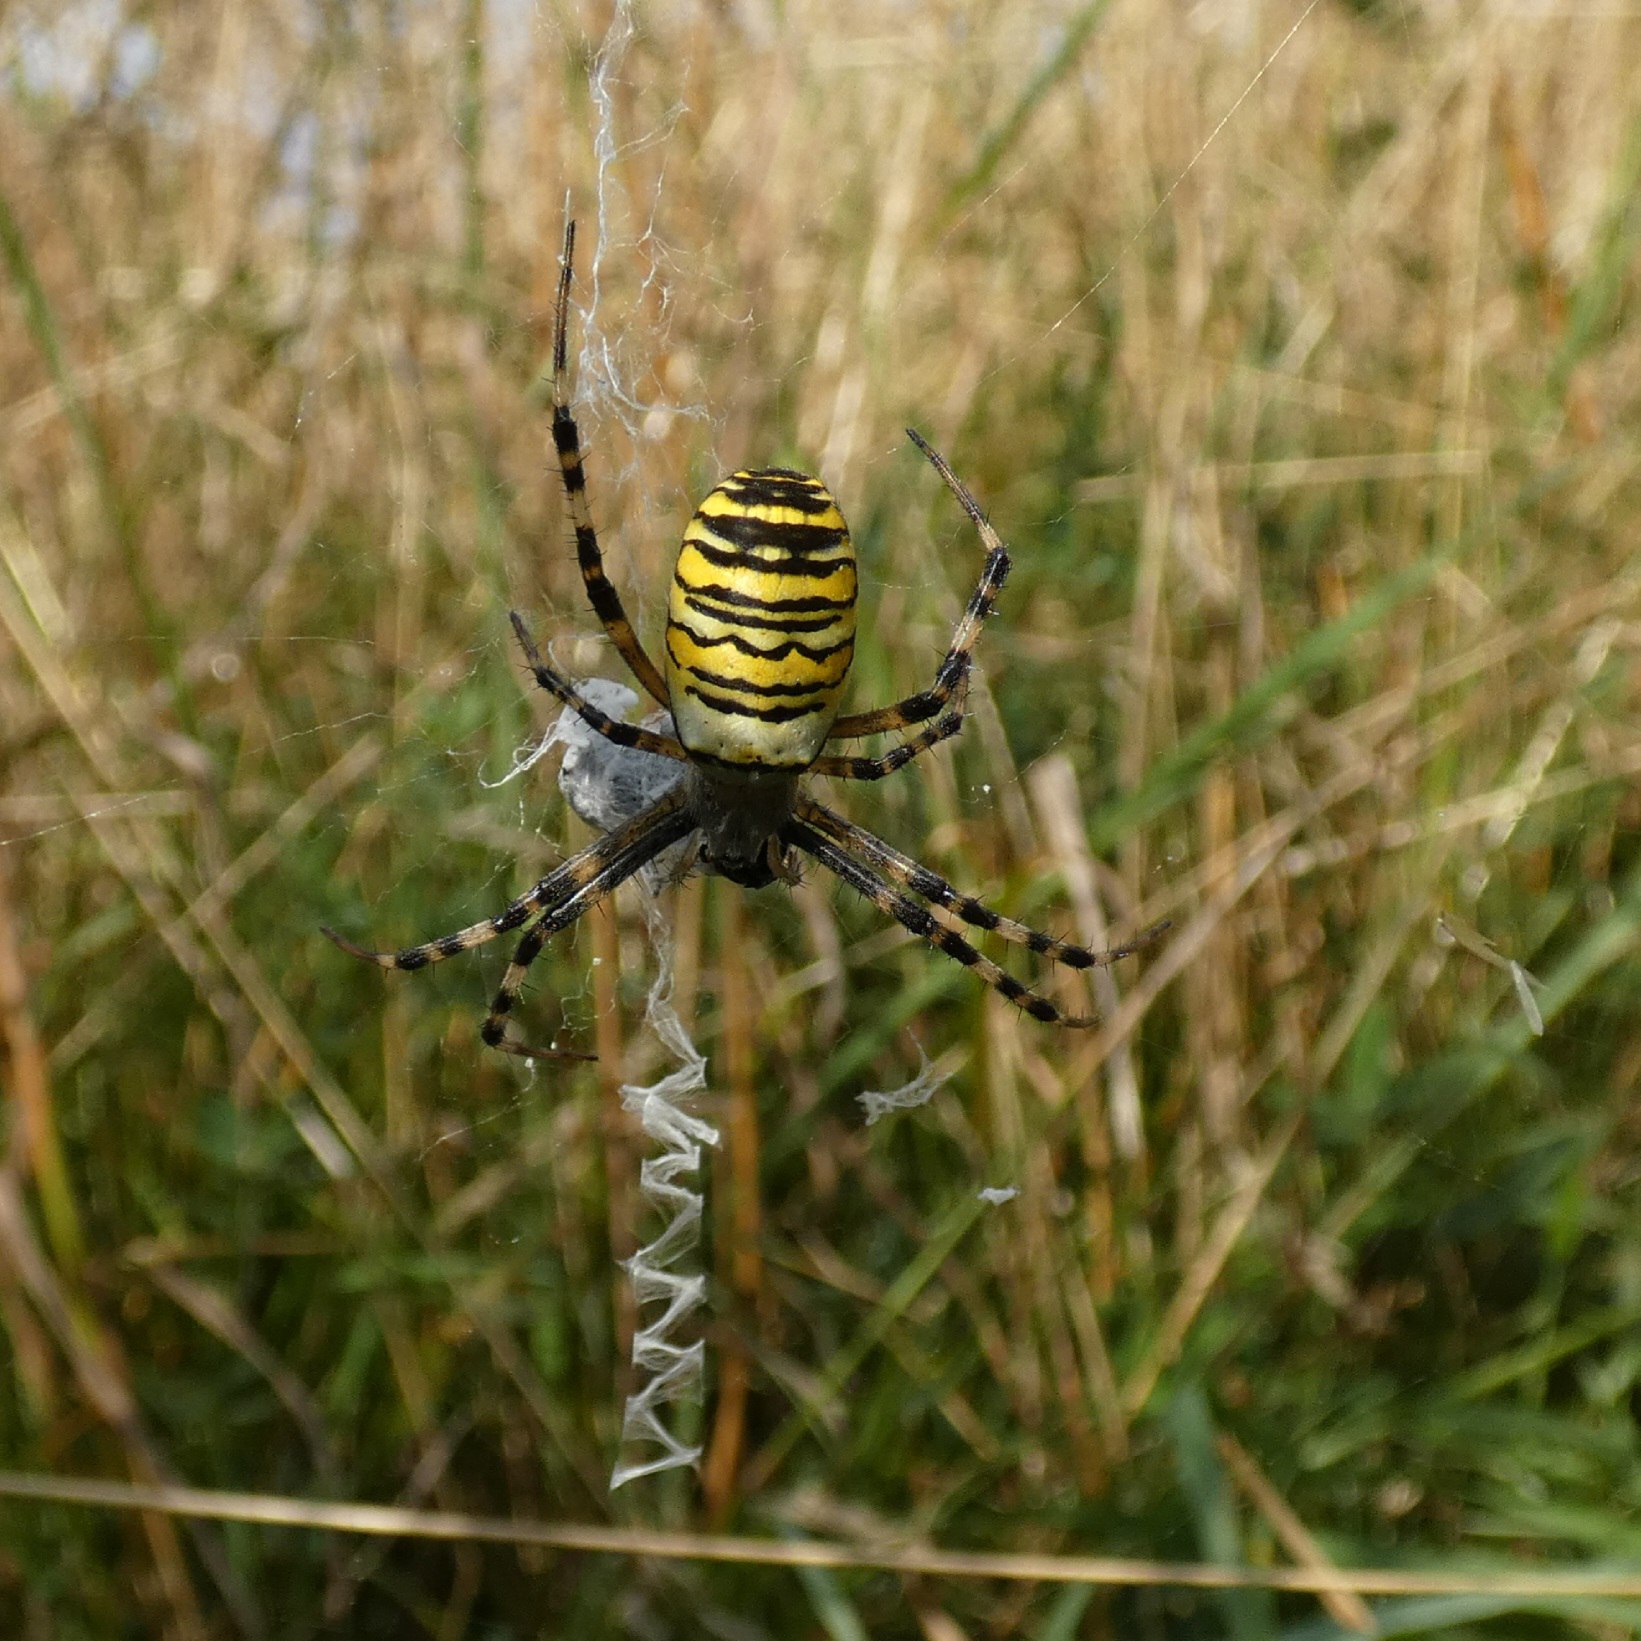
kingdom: Animalia
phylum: Arthropoda
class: Arachnida
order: Araneae
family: Araneidae
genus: Argiope
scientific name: Argiope bruennichi
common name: Hvepseedderkop
